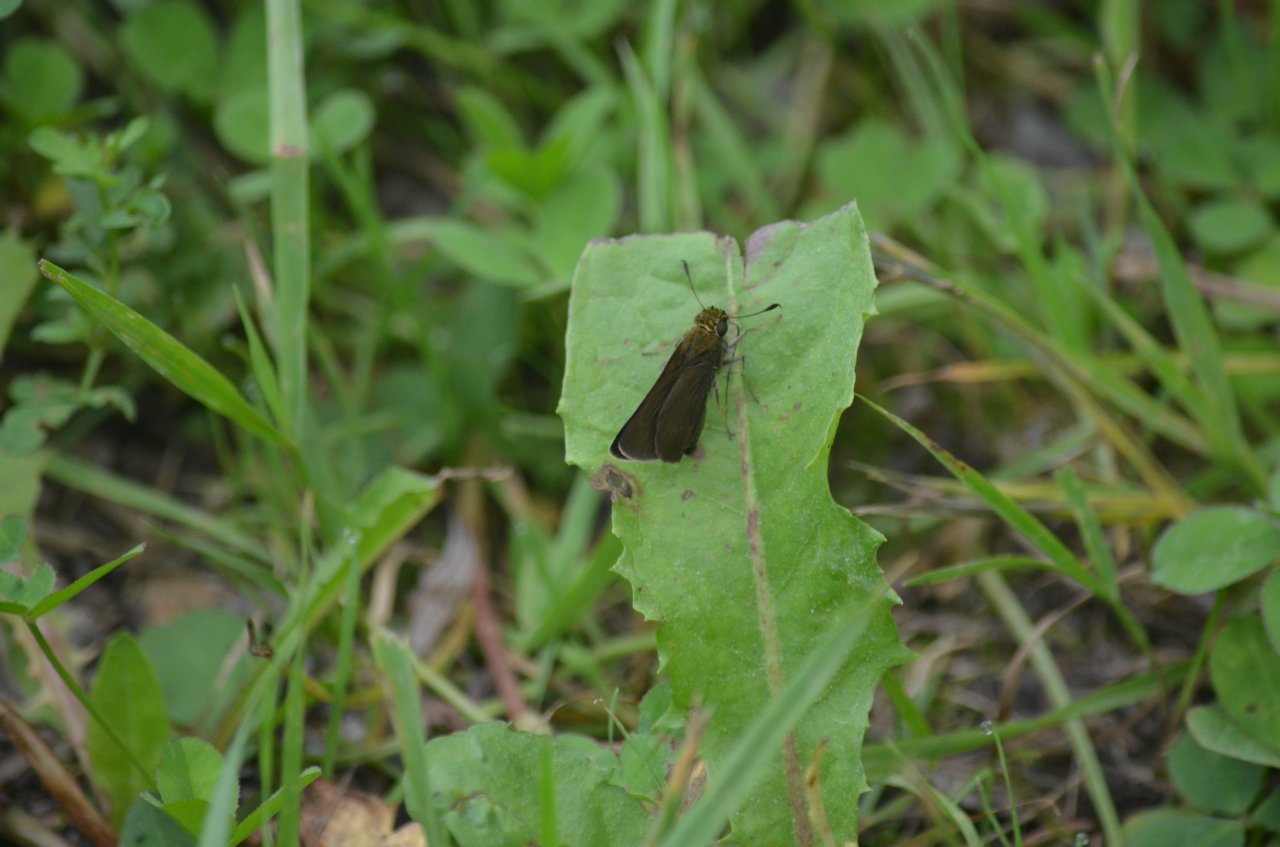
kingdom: Animalia
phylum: Arthropoda
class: Insecta
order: Lepidoptera
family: Hesperiidae
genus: Euphyes
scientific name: Euphyes vestris
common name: Dun Skipper
